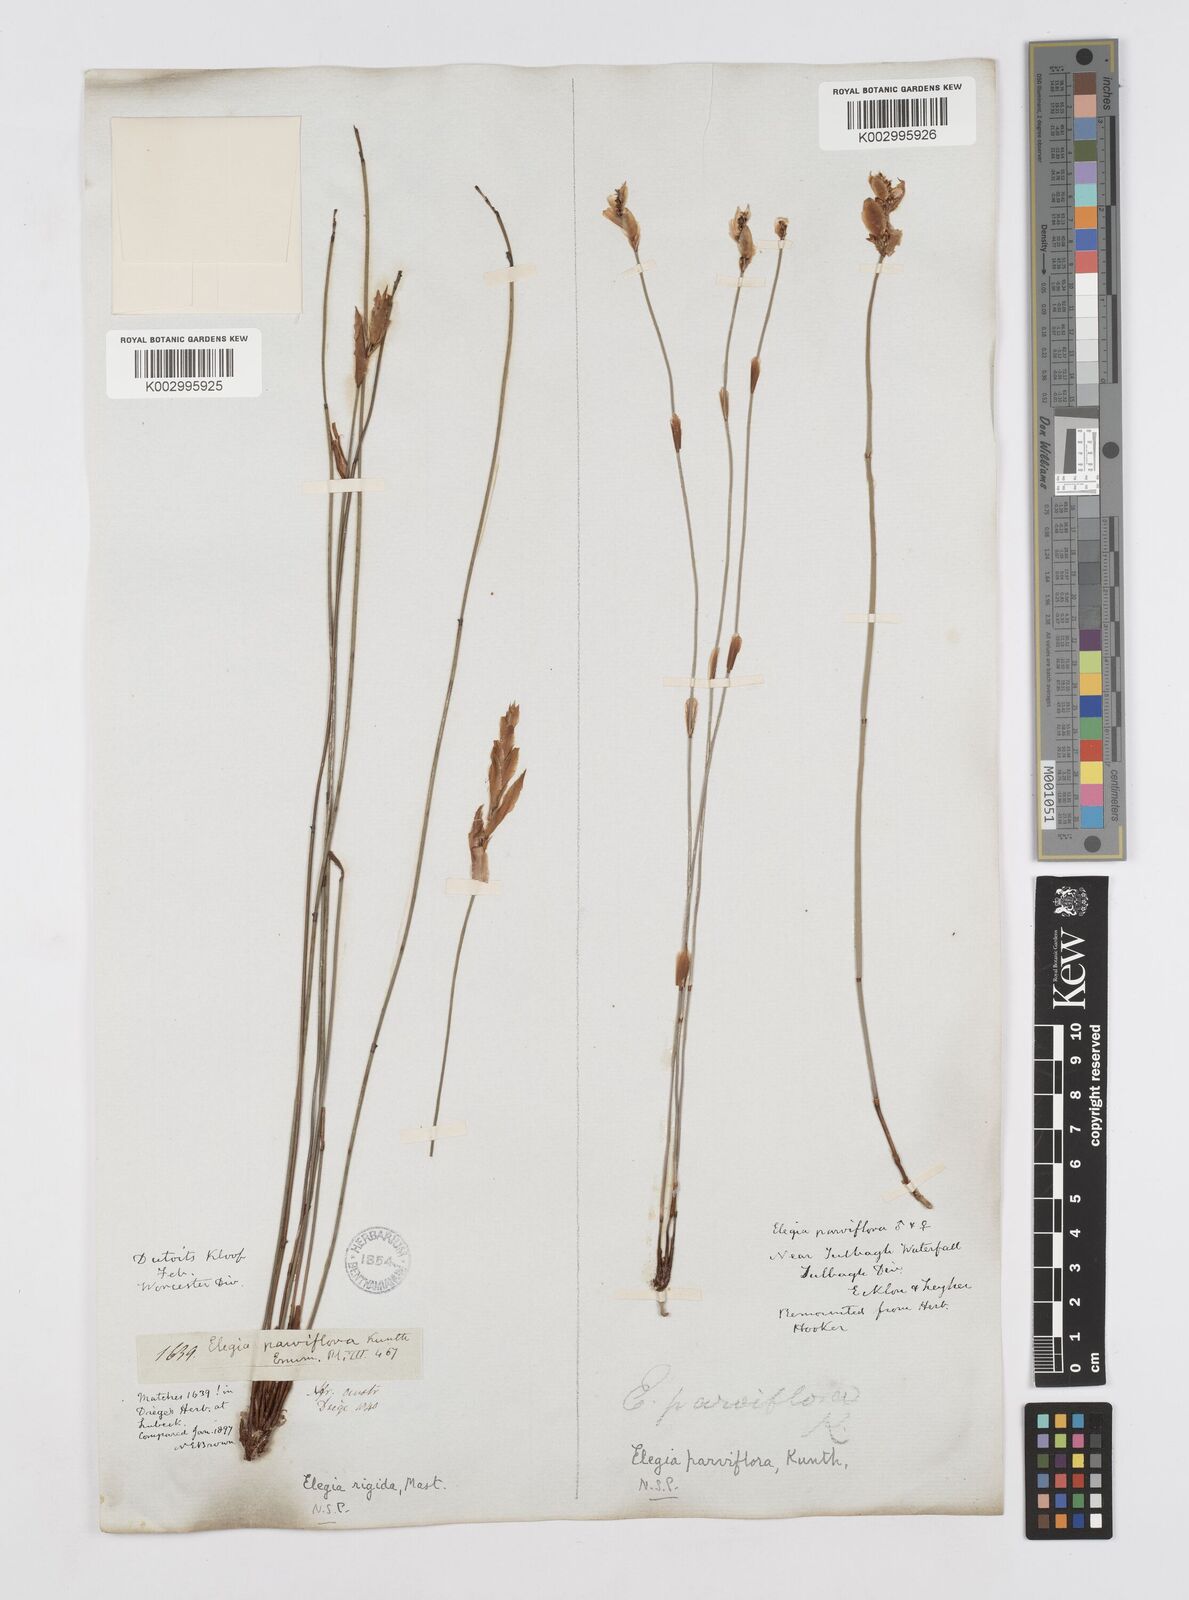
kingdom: Plantae
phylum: Tracheophyta
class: Liliopsida
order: Poales
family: Restionaceae
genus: Cannomois
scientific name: Cannomois parviflora
